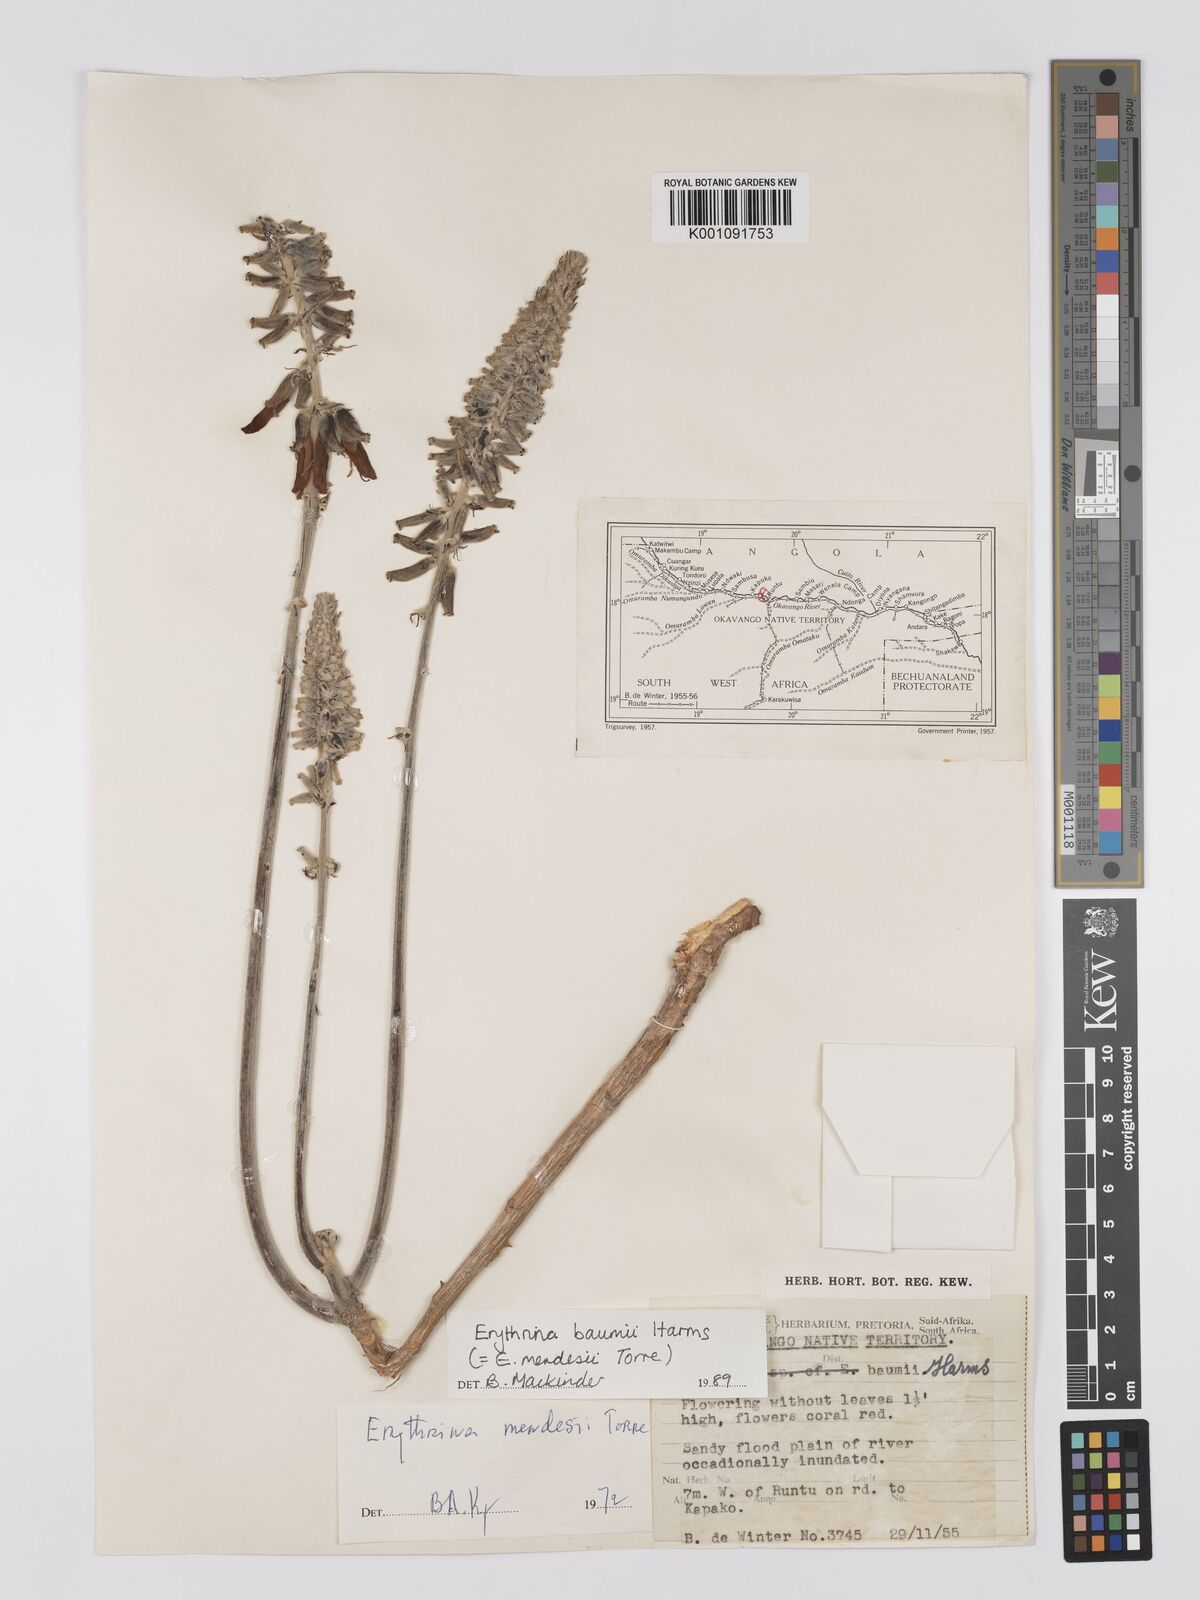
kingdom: Plantae
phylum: Tracheophyta
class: Magnoliopsida
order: Fabales
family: Fabaceae
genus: Erythrina
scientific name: Erythrina baumii
